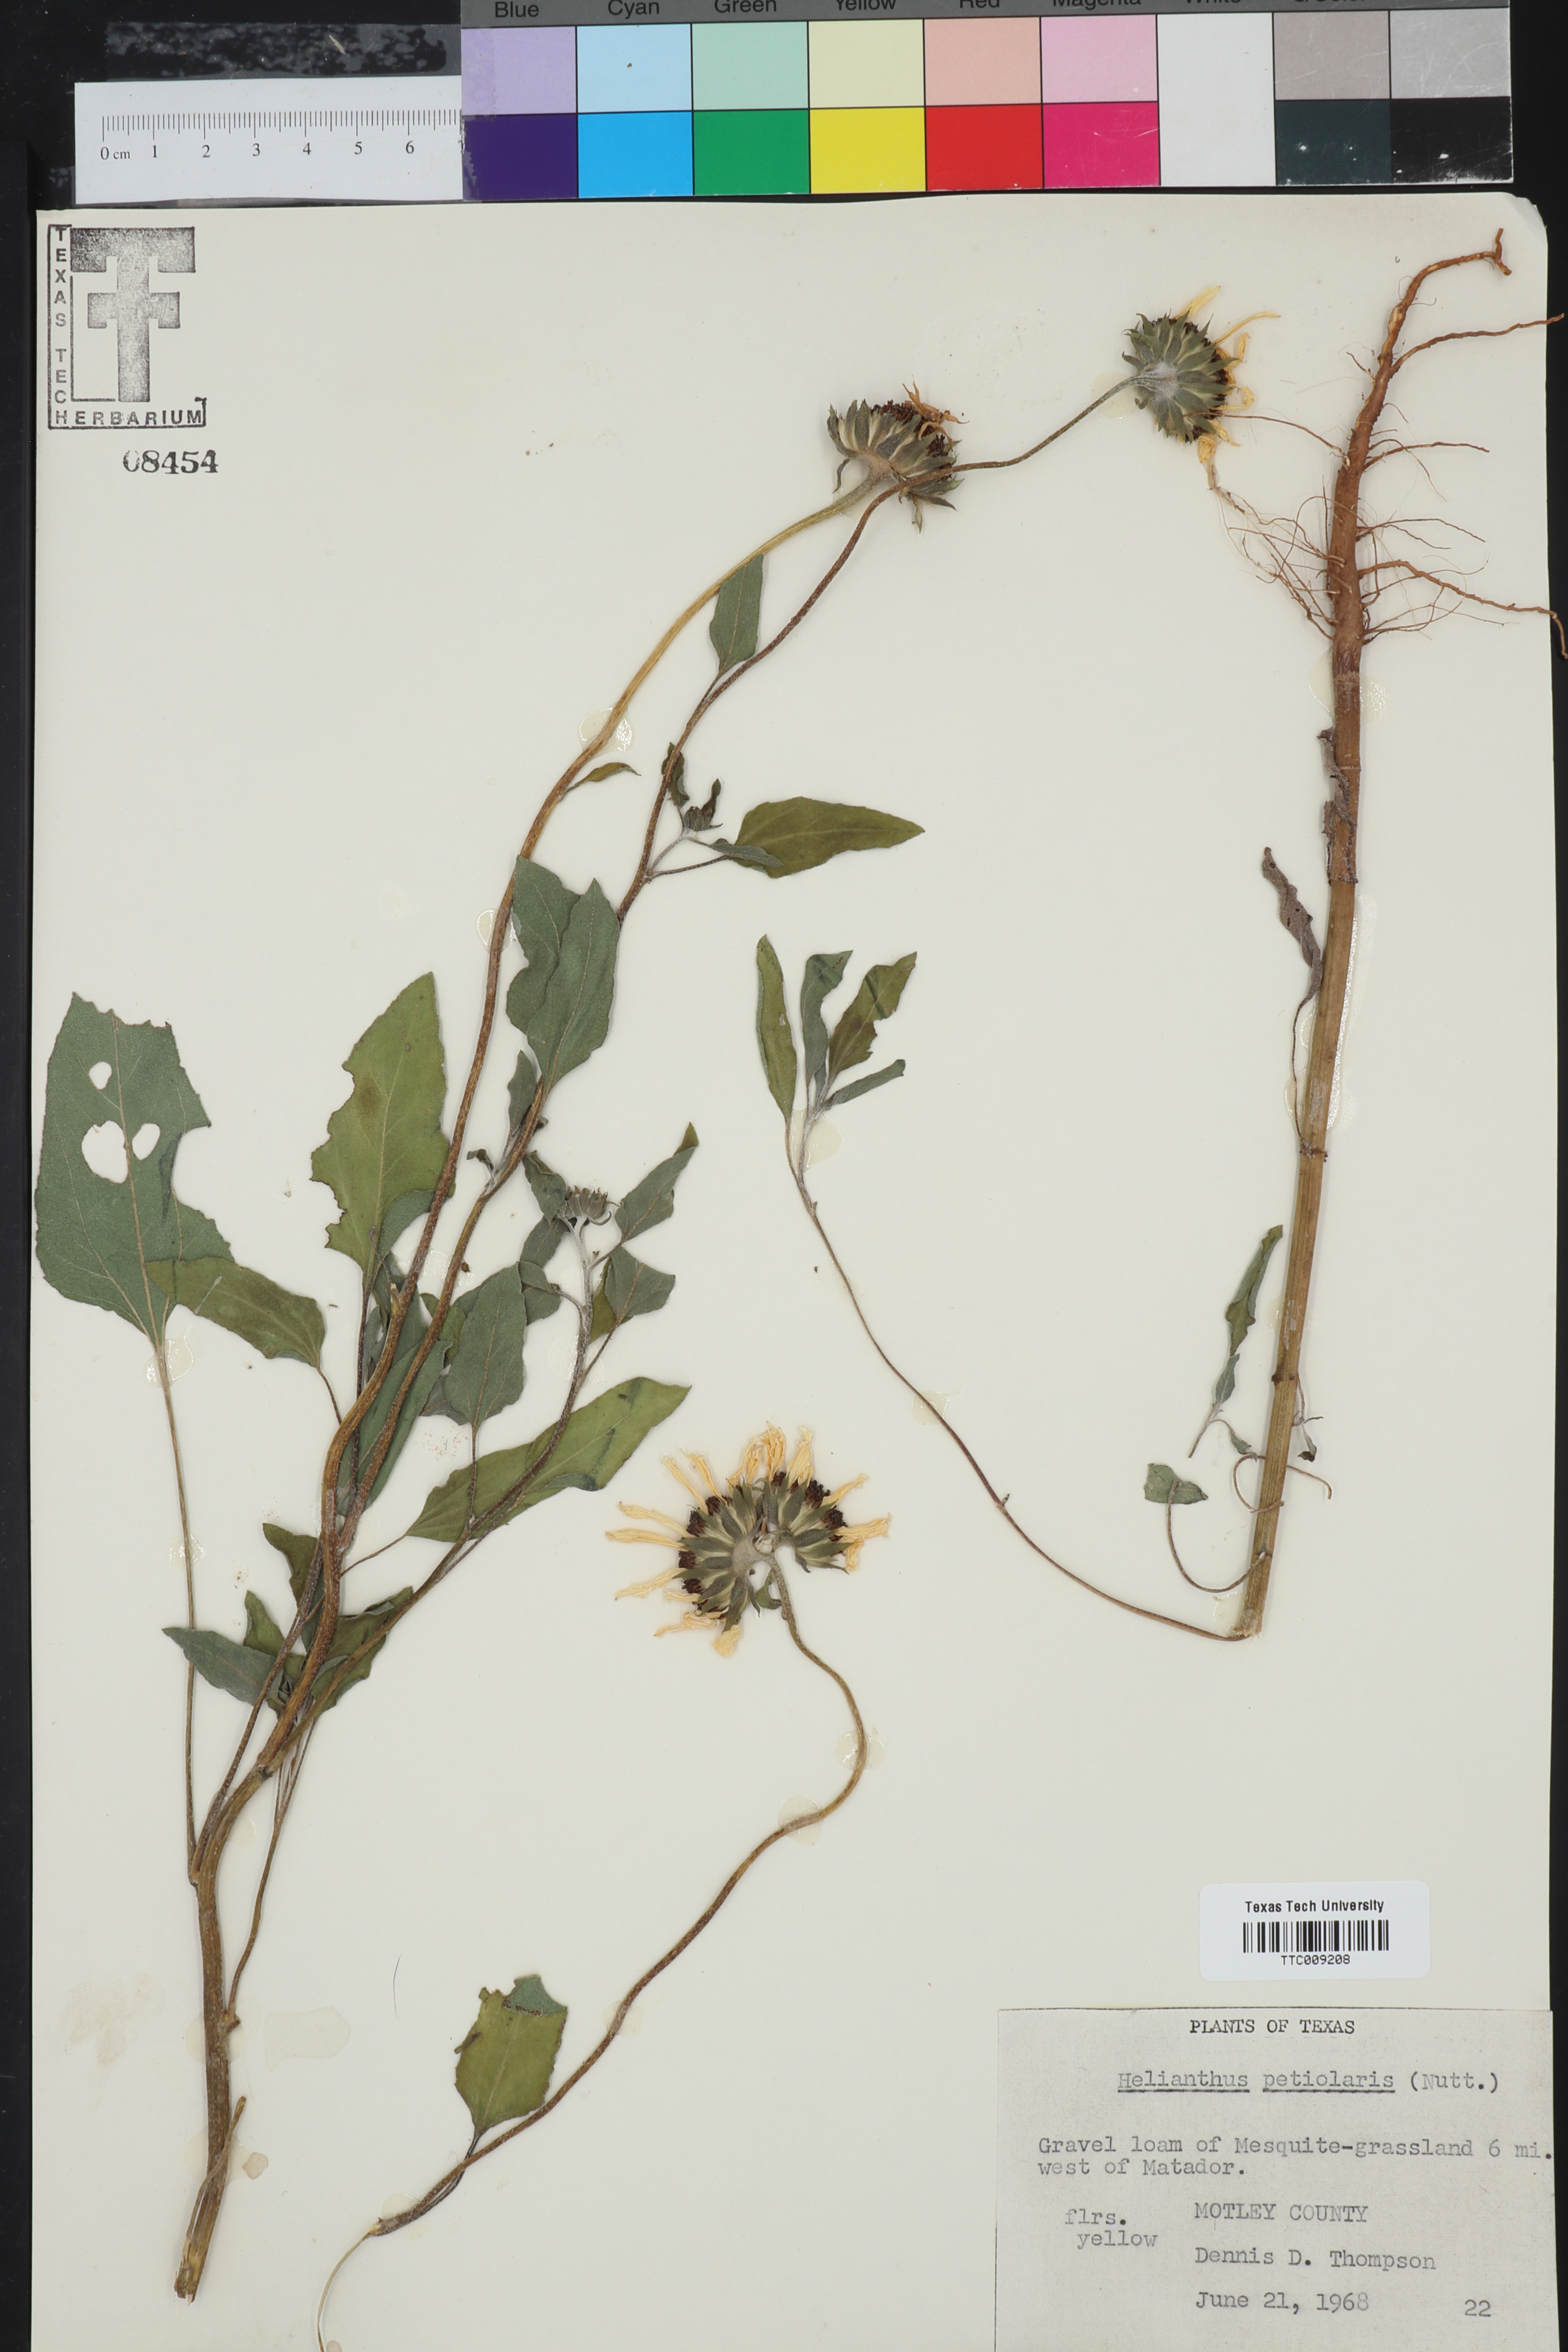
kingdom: Plantae
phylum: Tracheophyta
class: Magnoliopsida
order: Asterales
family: Asteraceae
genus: Helianthus
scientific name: Helianthus petiolaris
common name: Lesser sunflower
